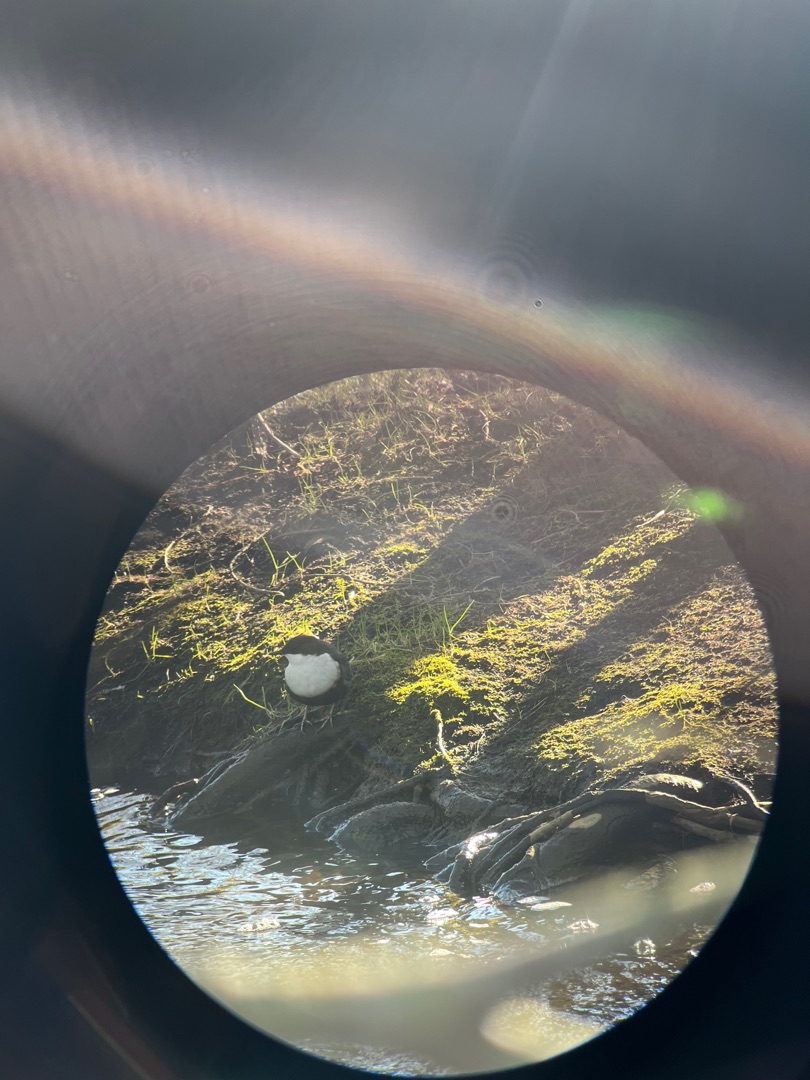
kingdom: Animalia
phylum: Chordata
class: Aves
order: Passeriformes
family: Cinclidae
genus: Cinclus
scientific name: Cinclus cinclus
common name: Vandstær
